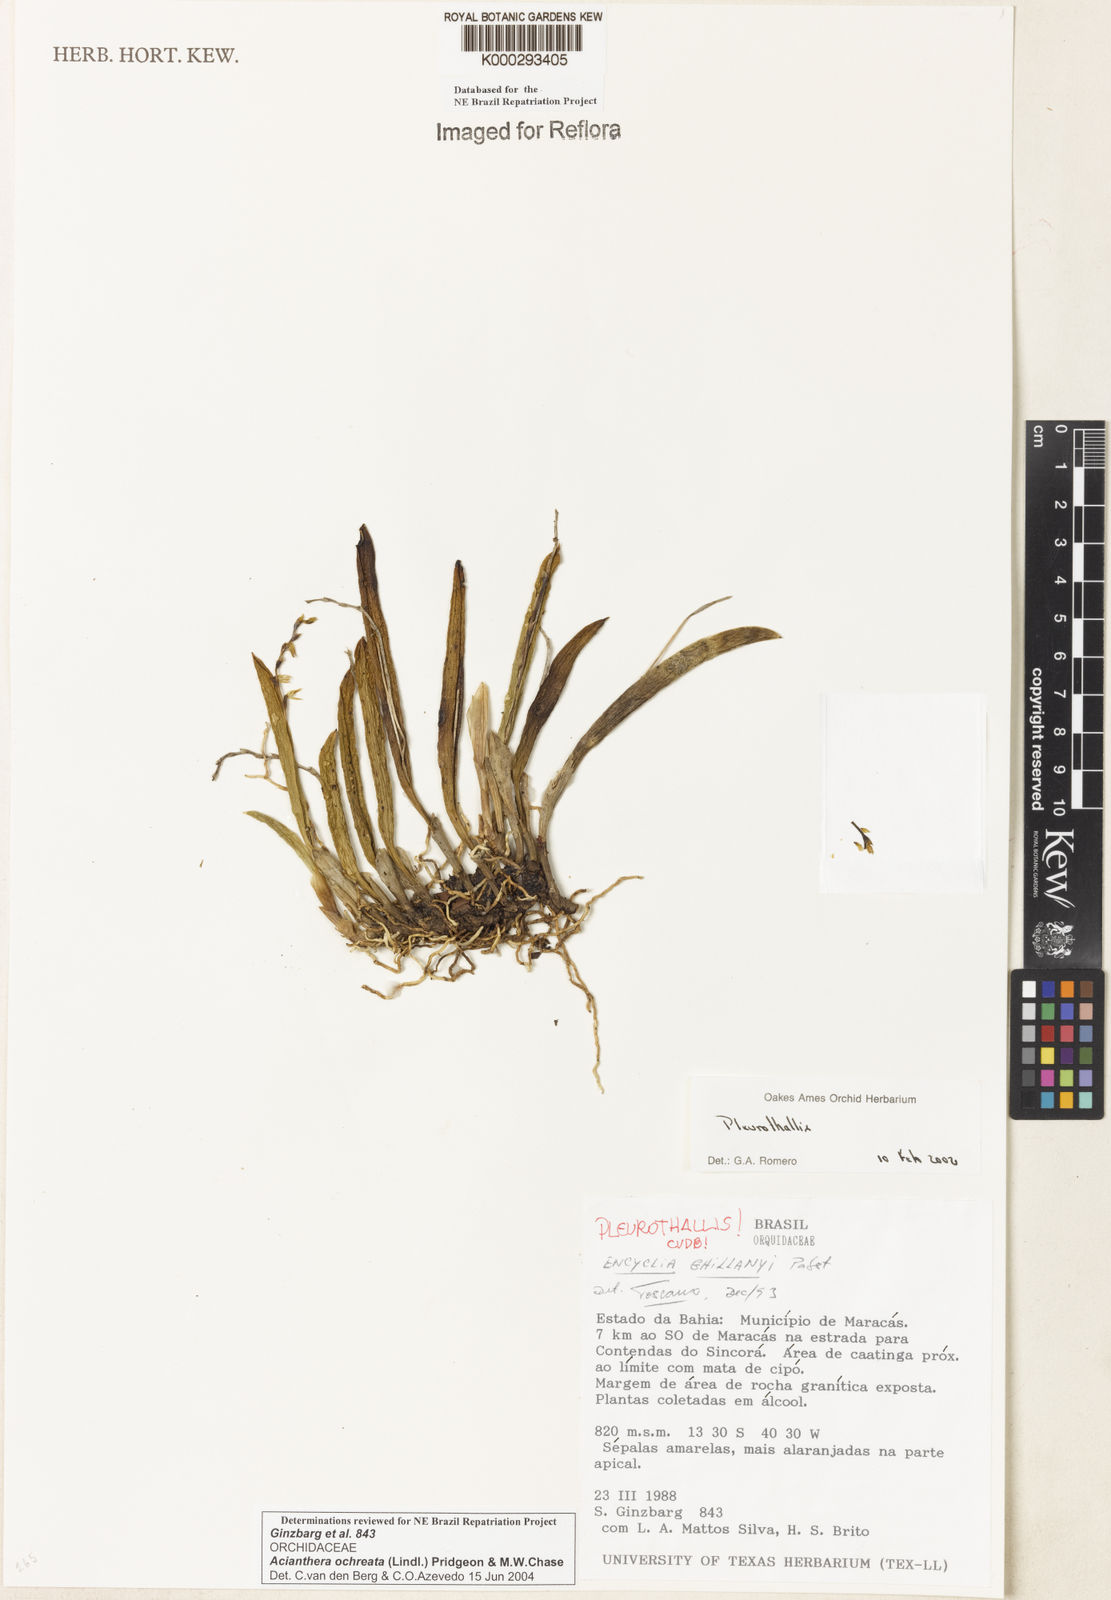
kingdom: Plantae
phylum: Tracheophyta
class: Liliopsida
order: Asparagales
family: Orchidaceae
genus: Acianthera
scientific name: Acianthera ochreata
